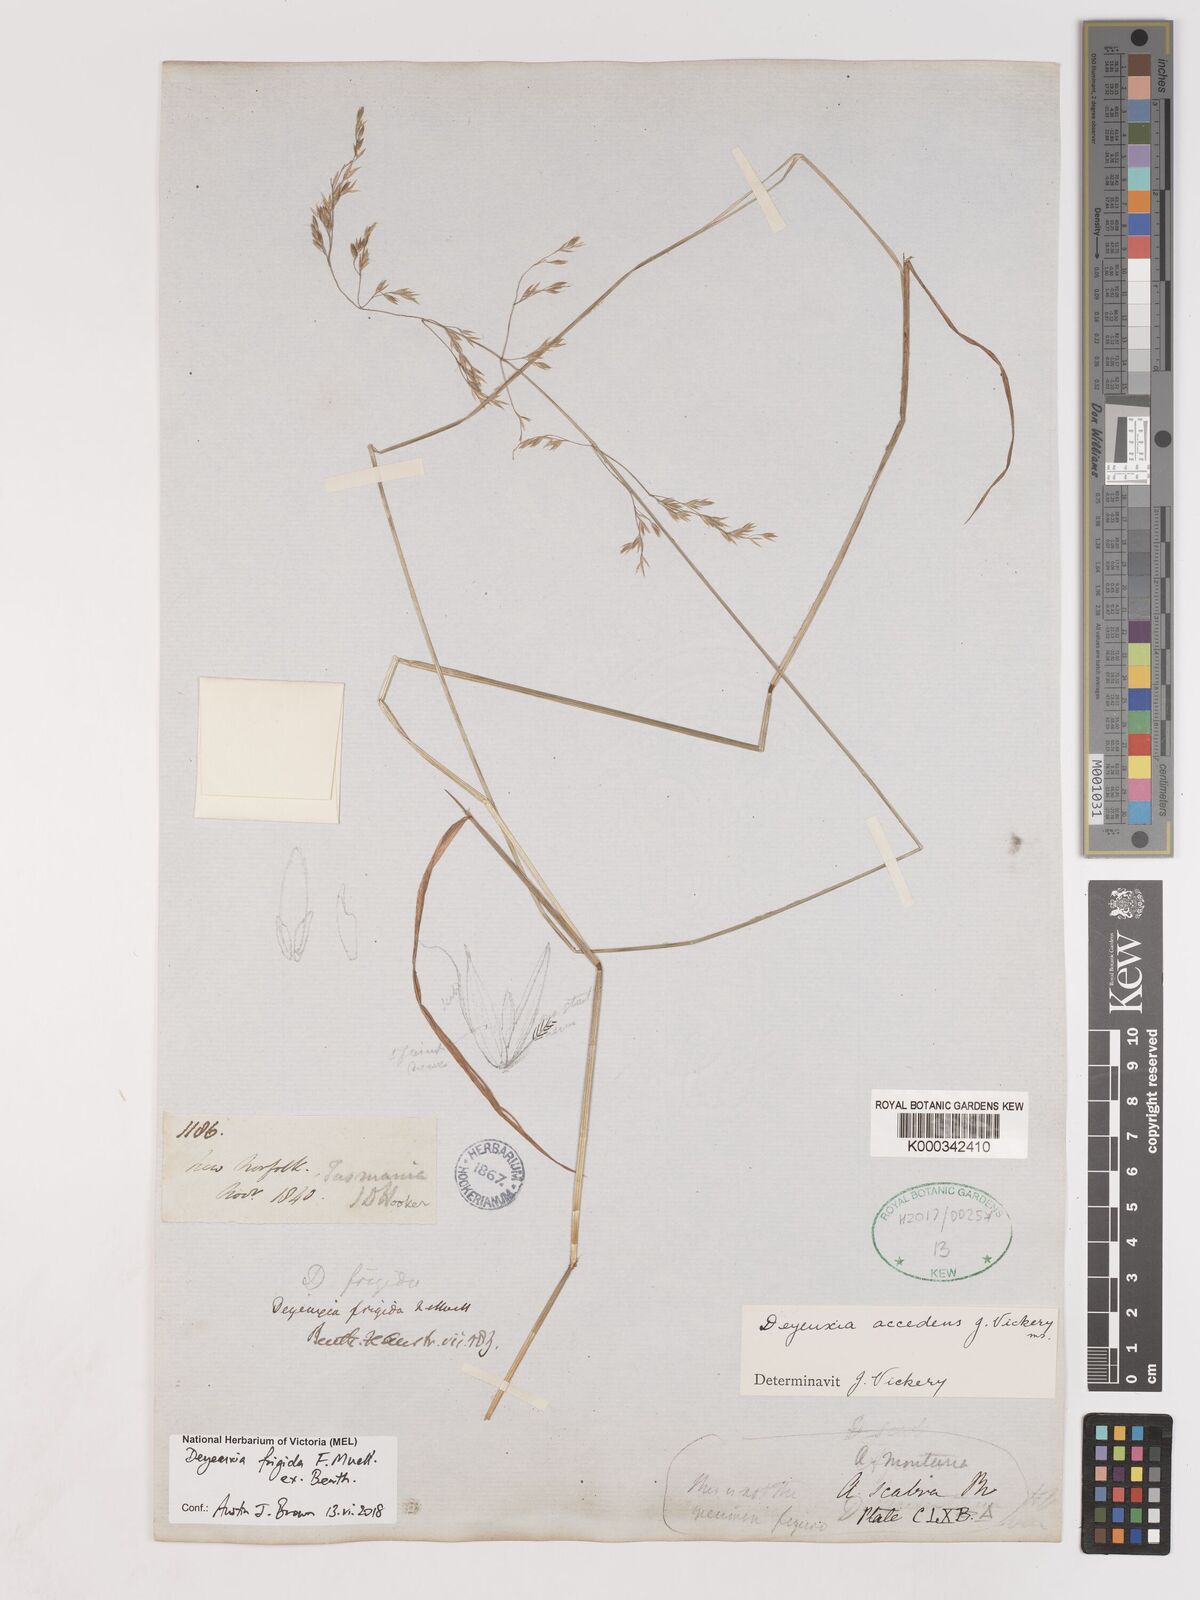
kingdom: Plantae
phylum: Tracheophyta
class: Liliopsida
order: Poales
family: Poaceae
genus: Calamagrostis
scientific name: Calamagrostis frigida
